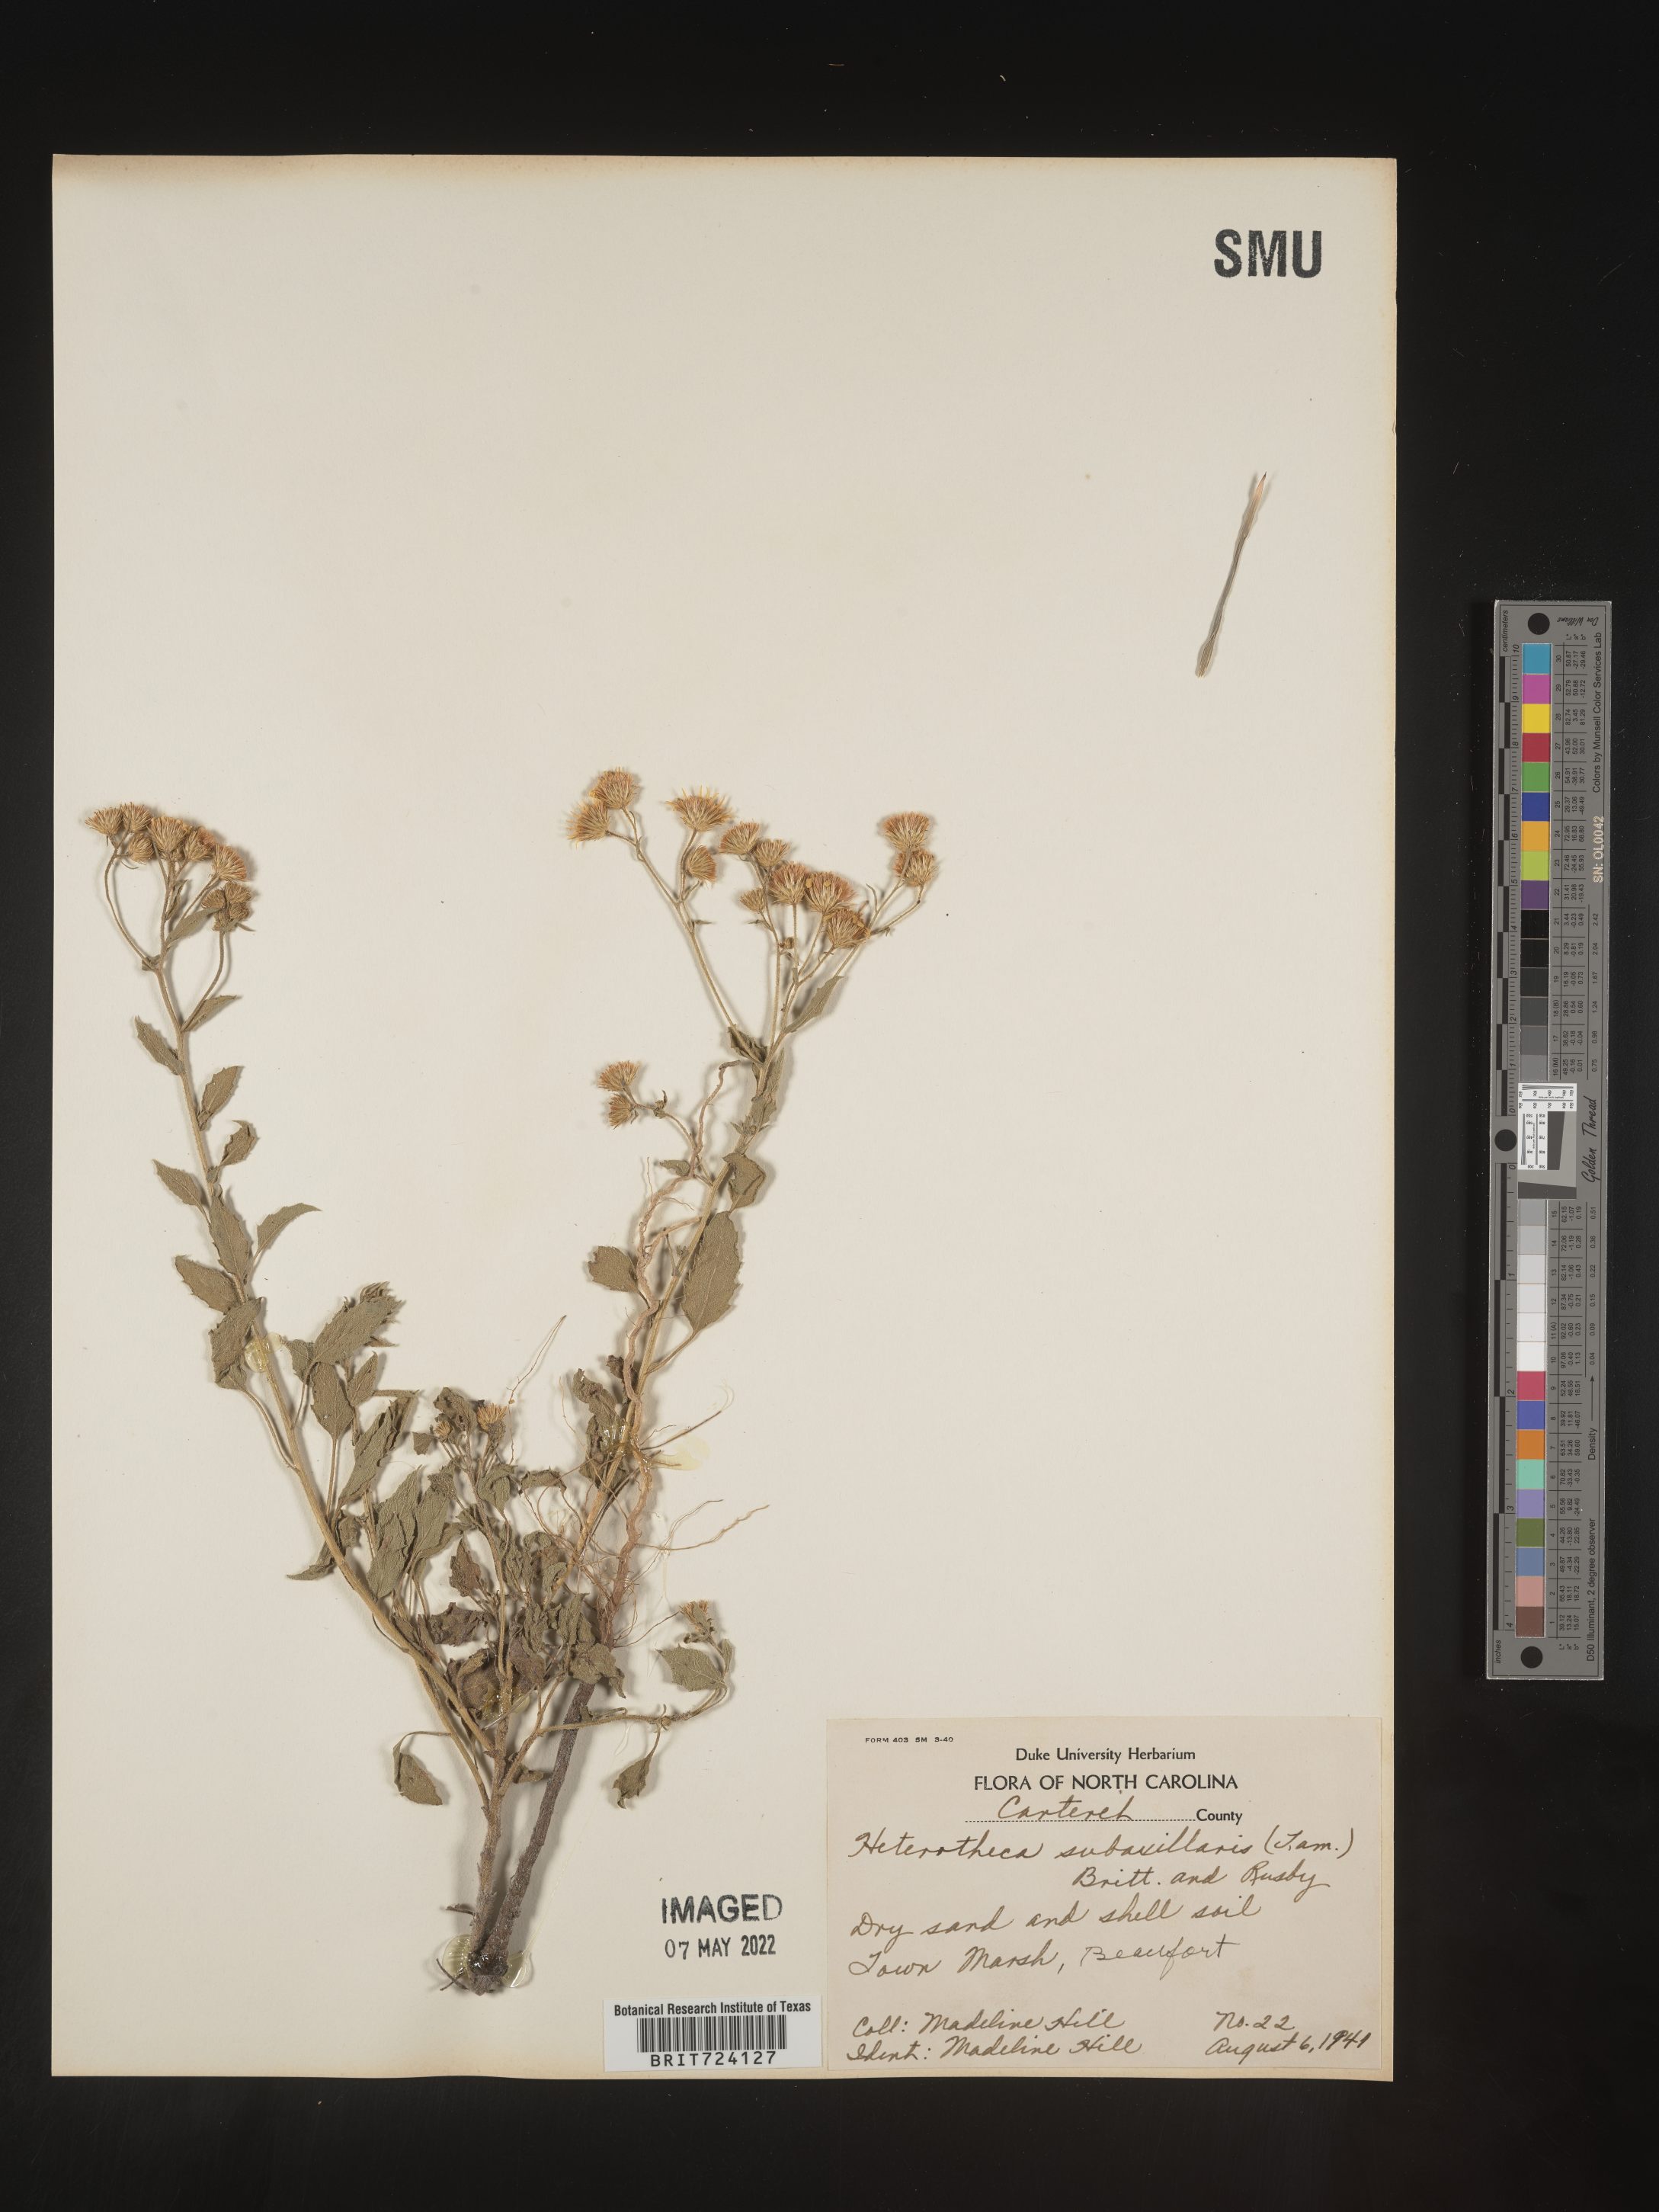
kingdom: Plantae
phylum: Tracheophyta
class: Magnoliopsida
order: Asterales
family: Asteraceae
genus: Heterotheca
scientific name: Heterotheca subaxillaris
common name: Camphorweed
